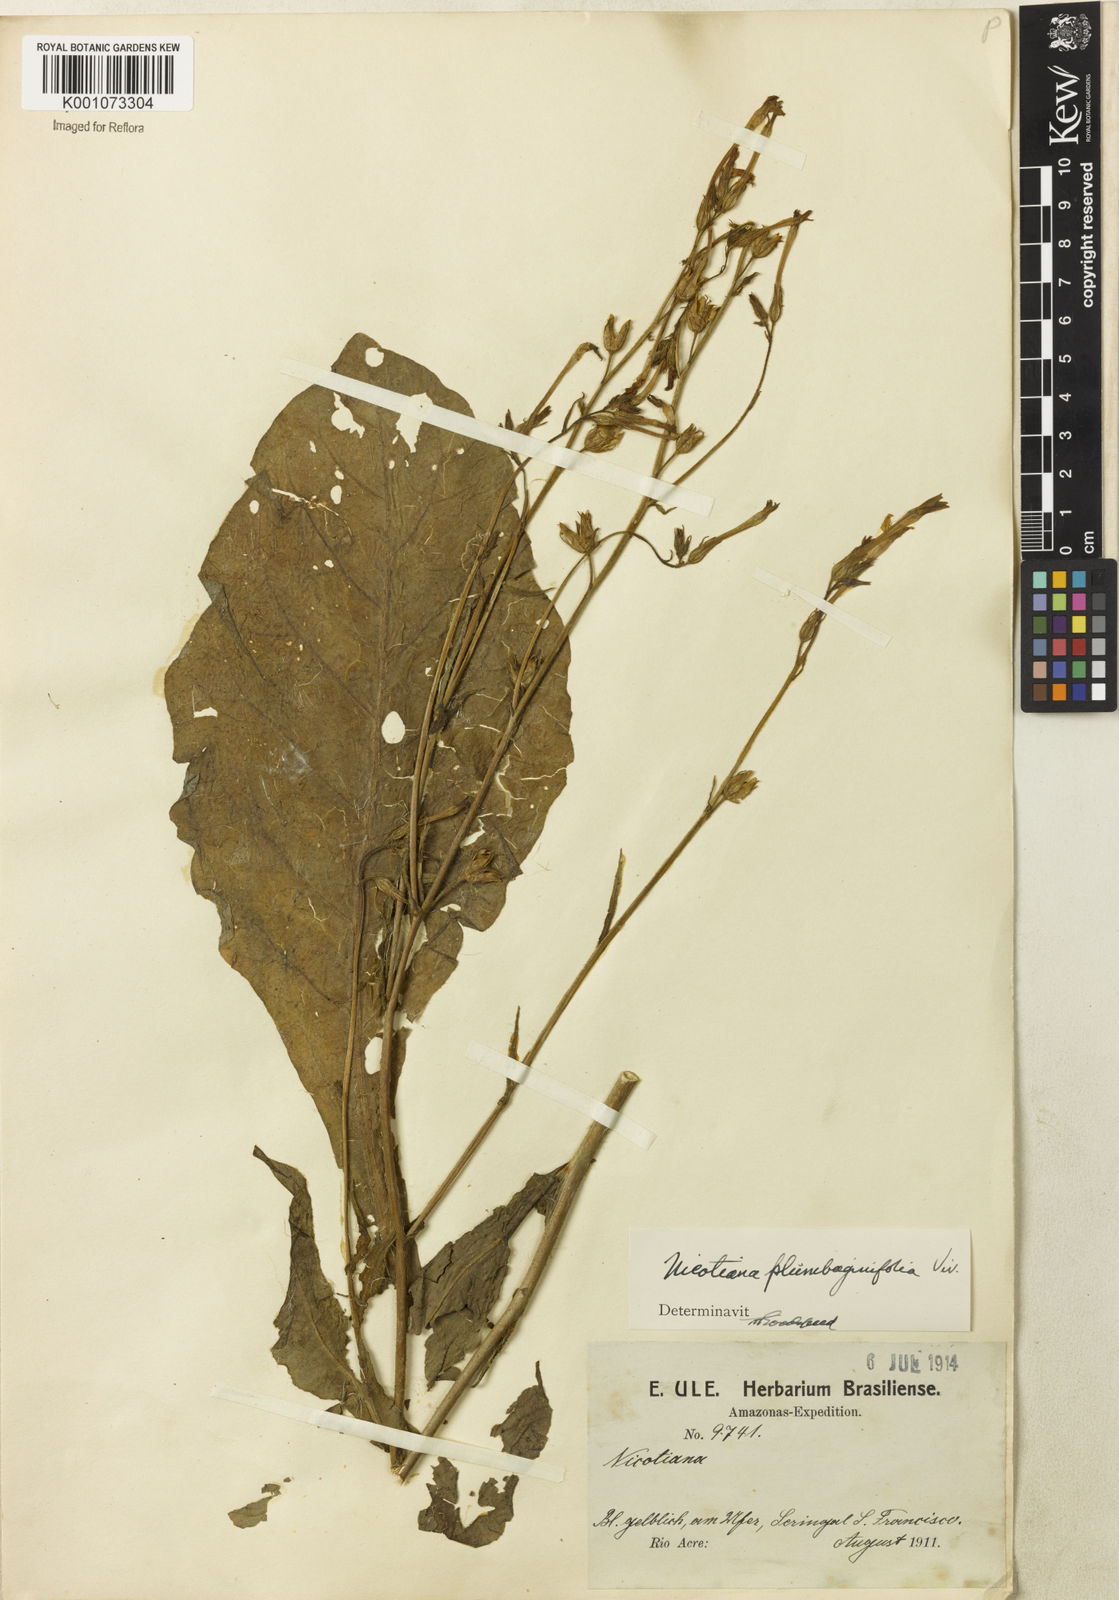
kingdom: Plantae
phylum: Tracheophyta
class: Magnoliopsida
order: Solanales
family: Solanaceae
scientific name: Solanaceae
